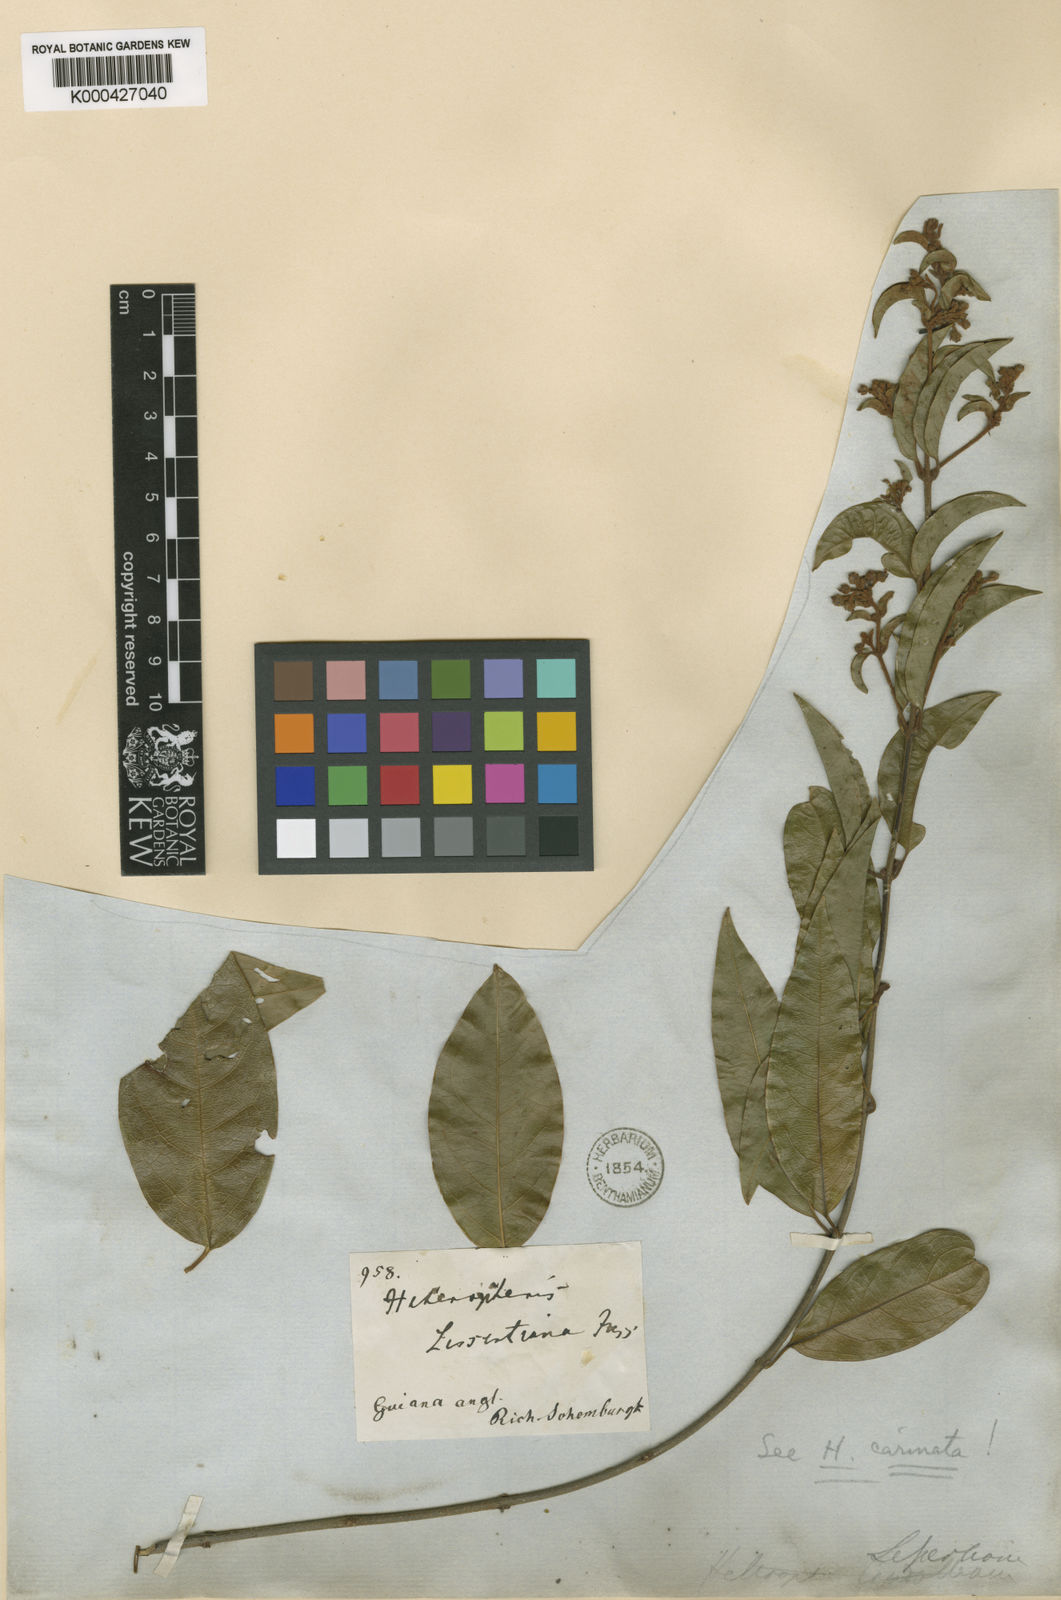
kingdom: Plantae
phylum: Tracheophyta
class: Magnoliopsida
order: Malpighiales
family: Malpighiaceae
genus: Heteropterys
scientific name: Heteropterys cristata
